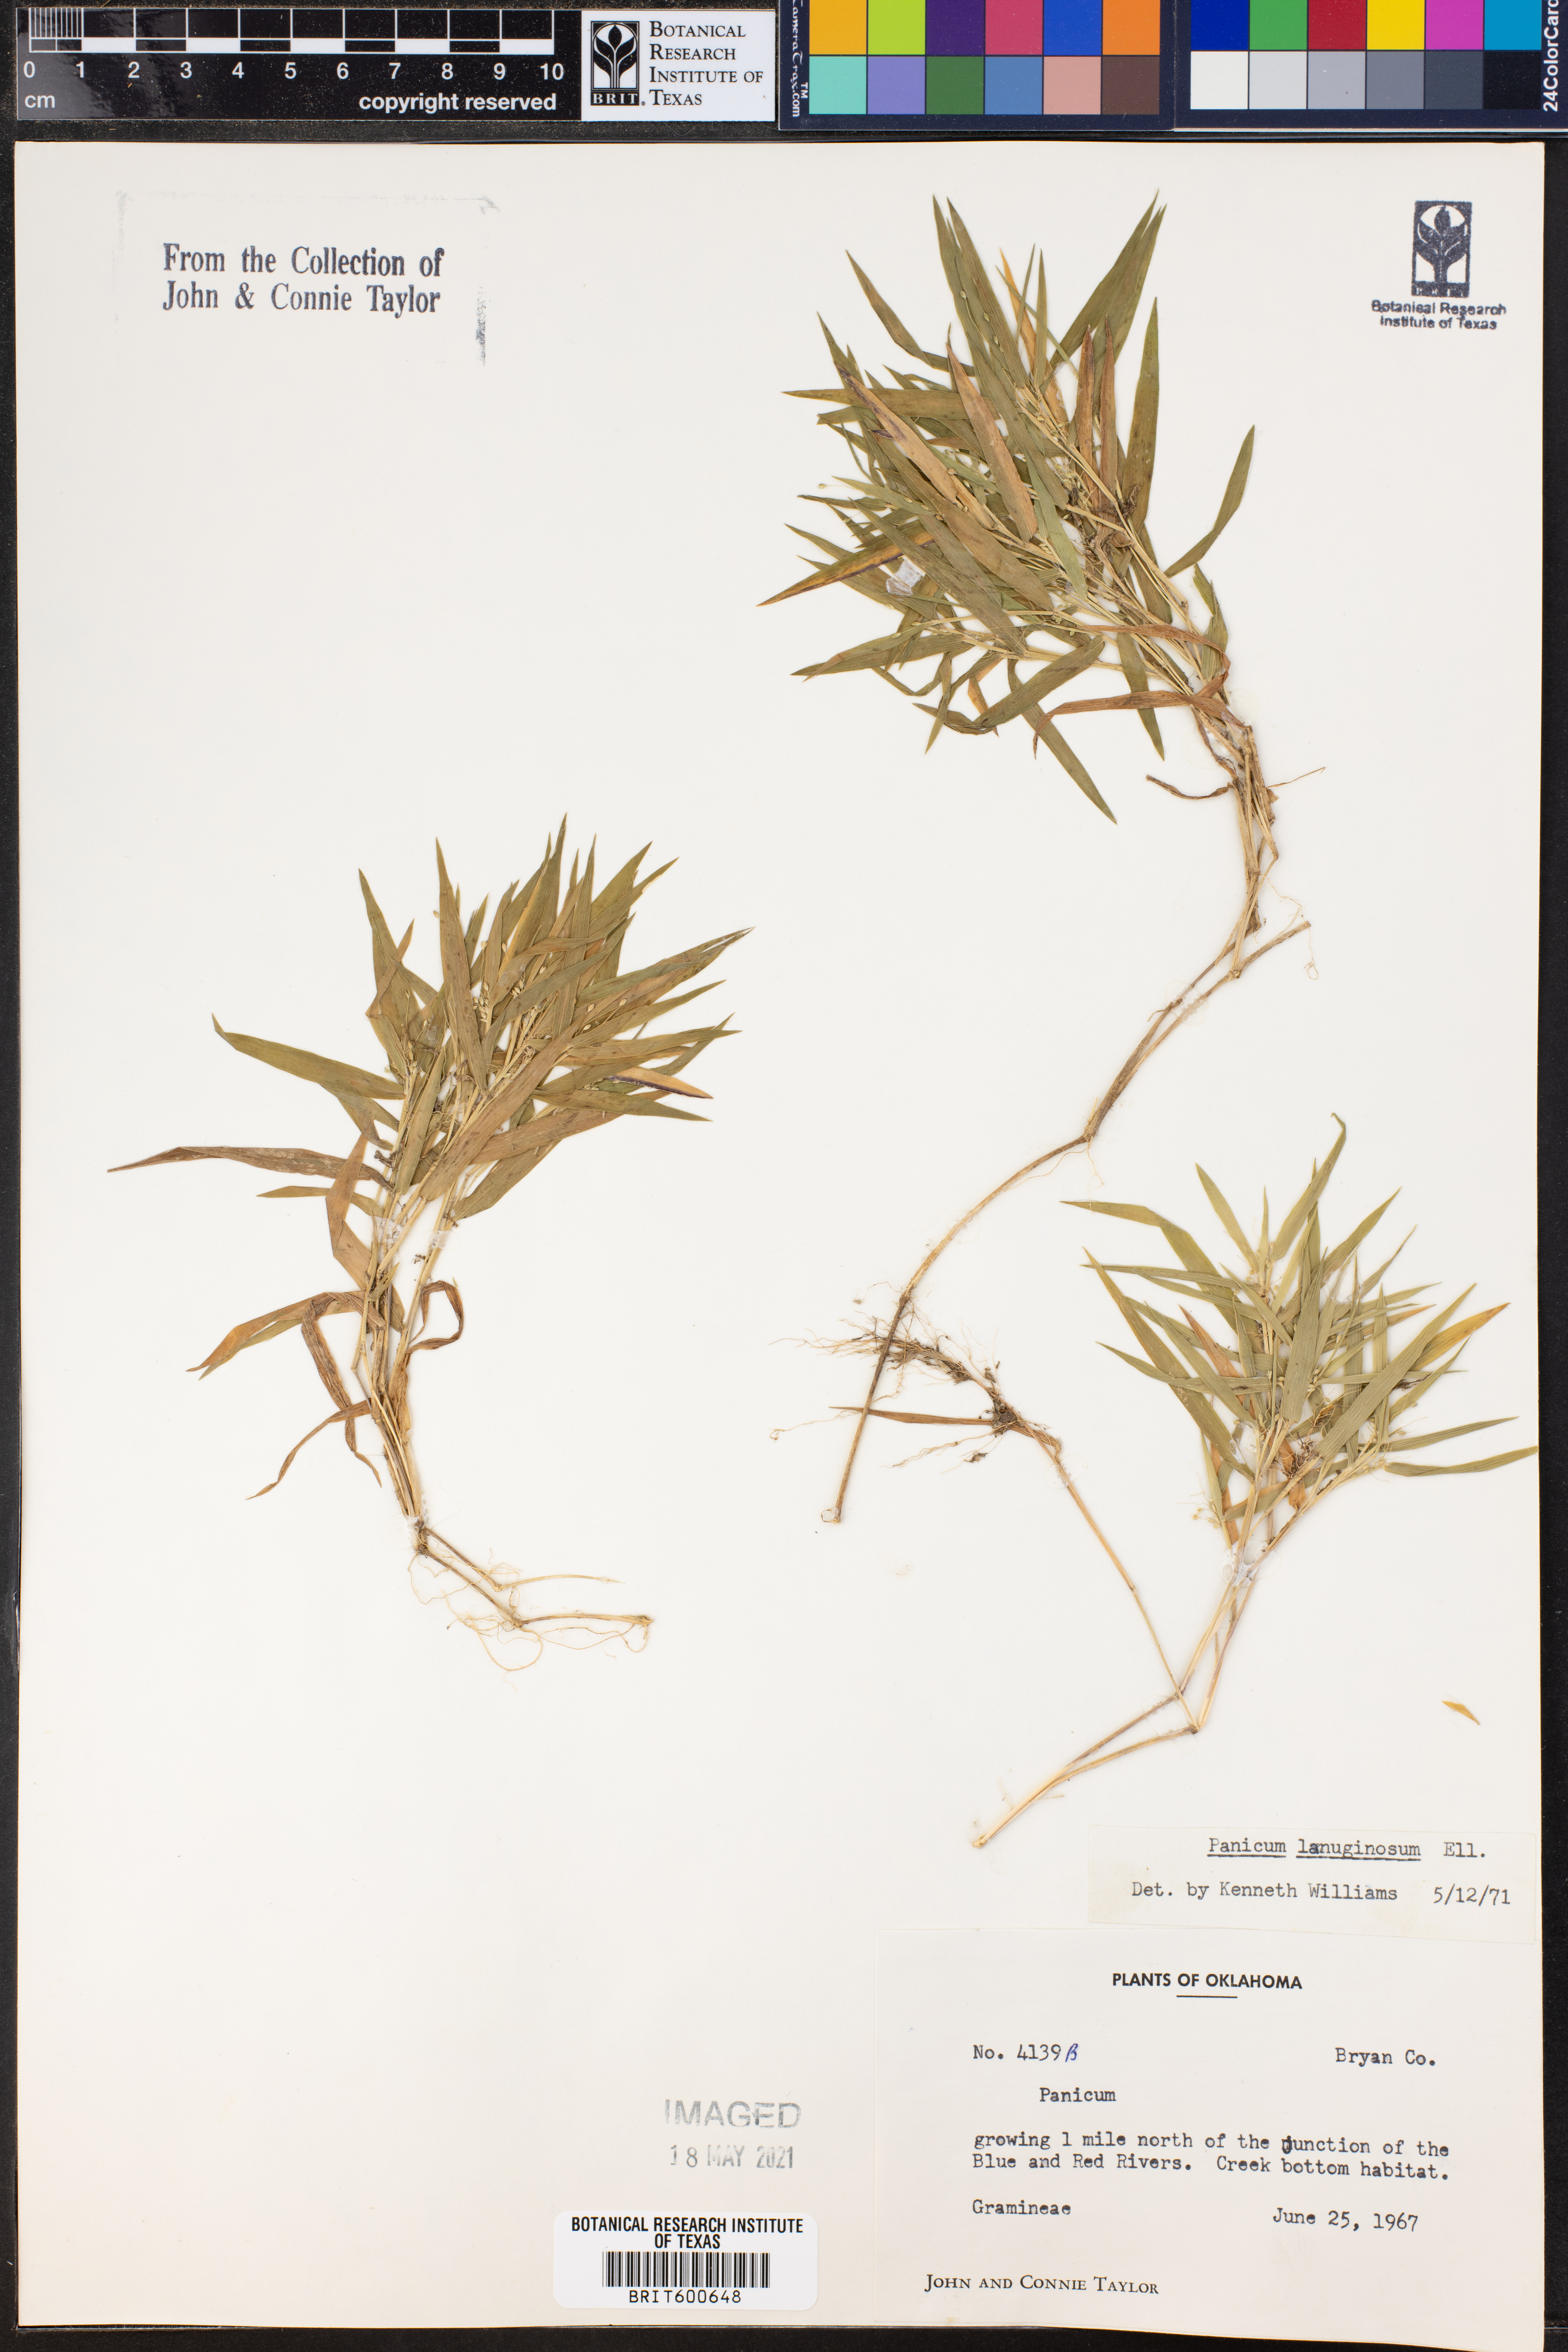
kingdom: Plantae
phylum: Tracheophyta
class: Liliopsida
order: Poales
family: Poaceae
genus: Dichanthelium
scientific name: Dichanthelium lanuginosum
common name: Woolly panicgrass
